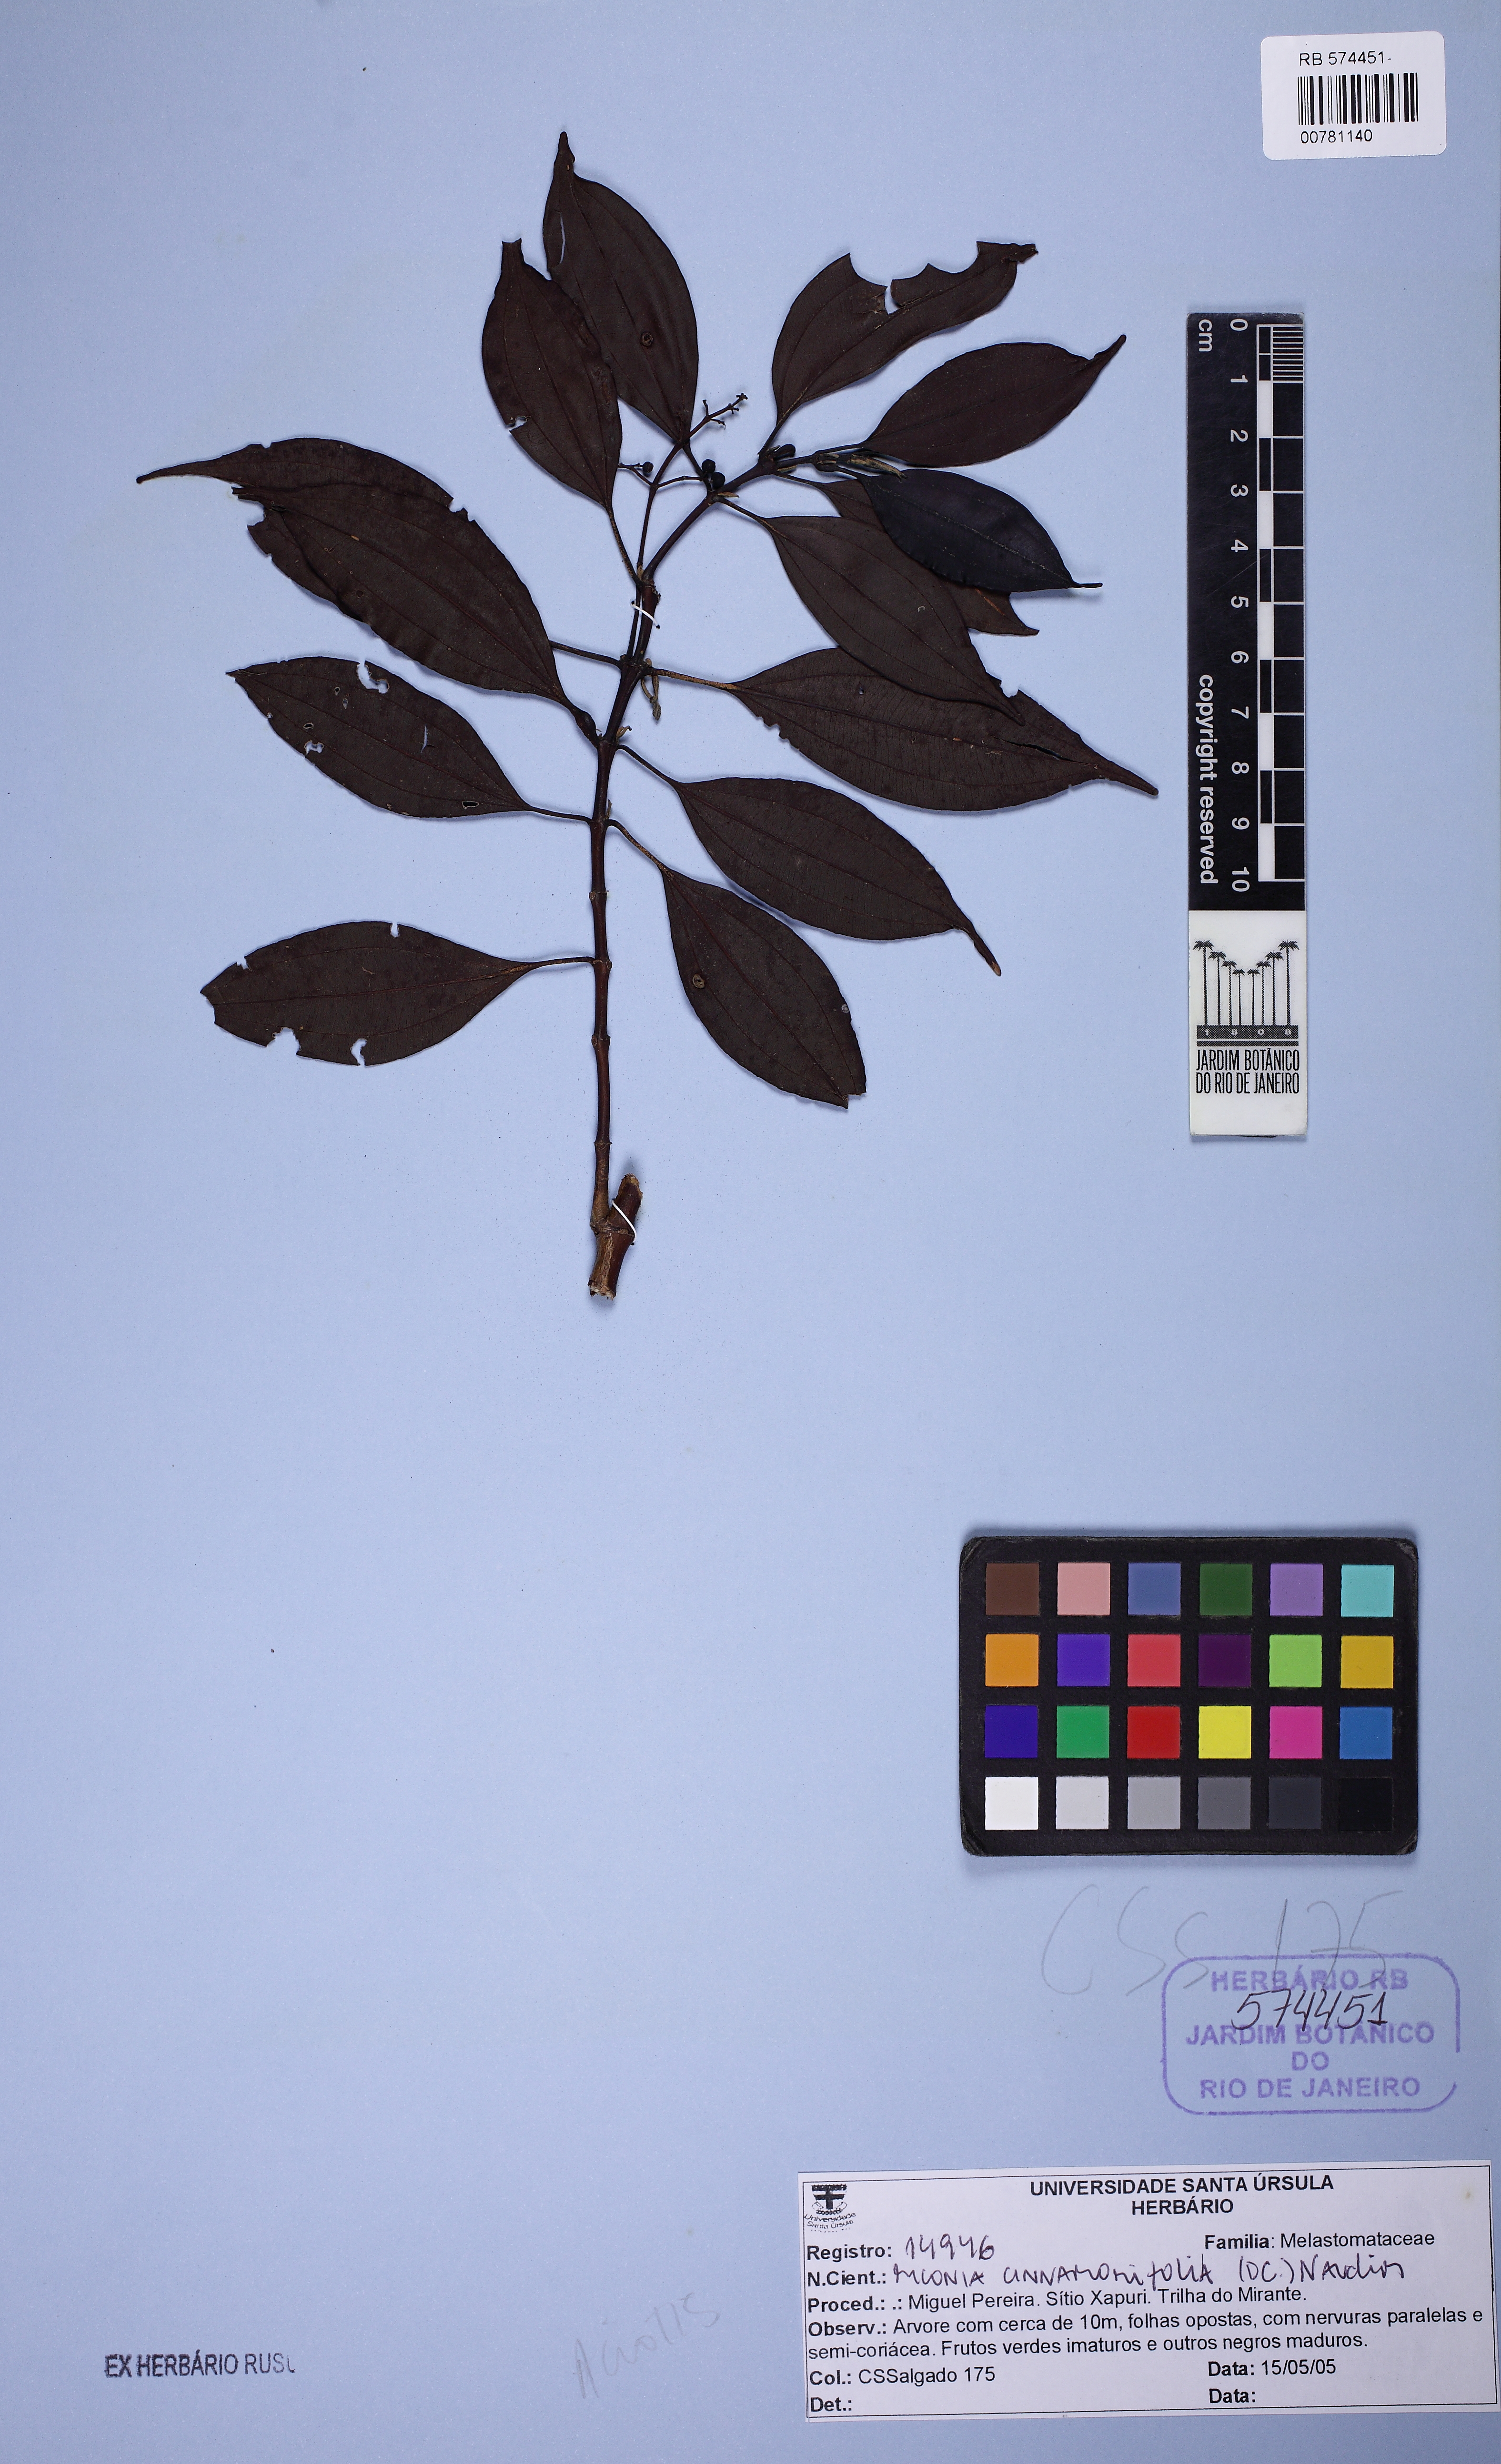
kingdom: Plantae
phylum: Tracheophyta
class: Magnoliopsida
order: Myrtales
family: Melastomataceae
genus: Miconia
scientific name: Miconia cinnamomifolia
